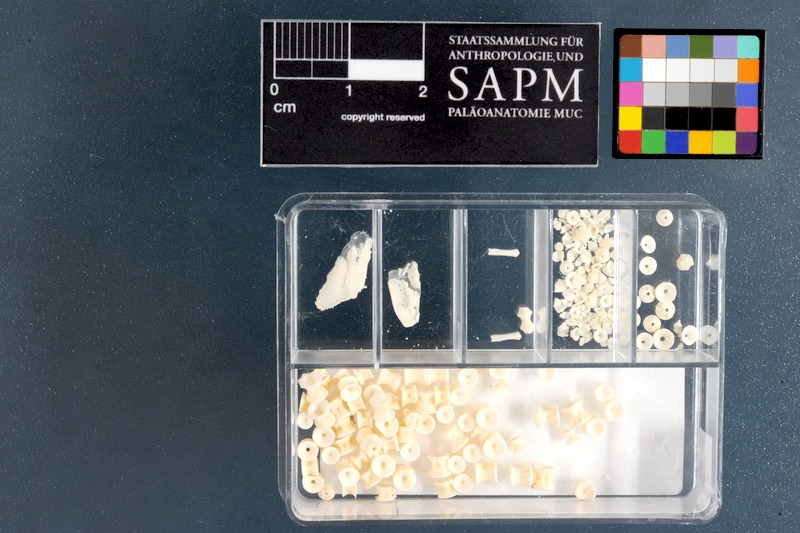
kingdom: Animalia
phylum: Chordata
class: Elasmobranchii
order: Carcharhiniformes
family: Scyliorhinidae
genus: Haploblepharus
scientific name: Haploblepharus edwardsii
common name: Puffadder shyshark
